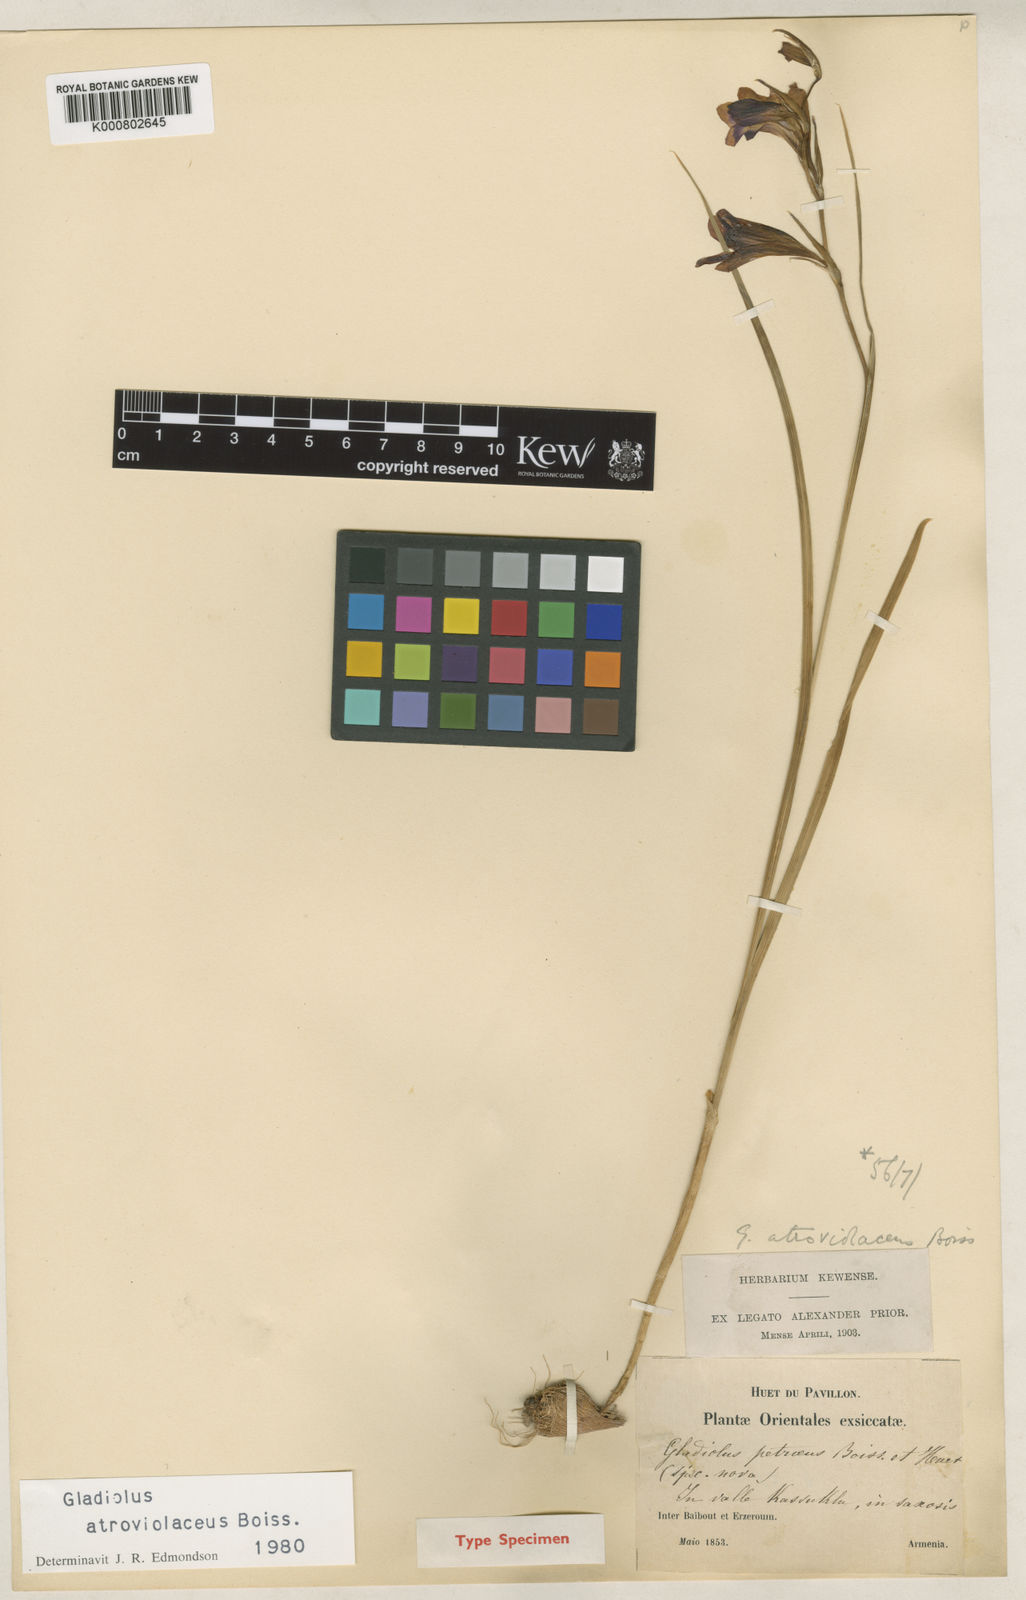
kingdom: Plantae
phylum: Tracheophyta
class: Liliopsida
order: Asparagales
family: Iridaceae
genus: Gladiolus
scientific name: Gladiolus atroviolaceus
